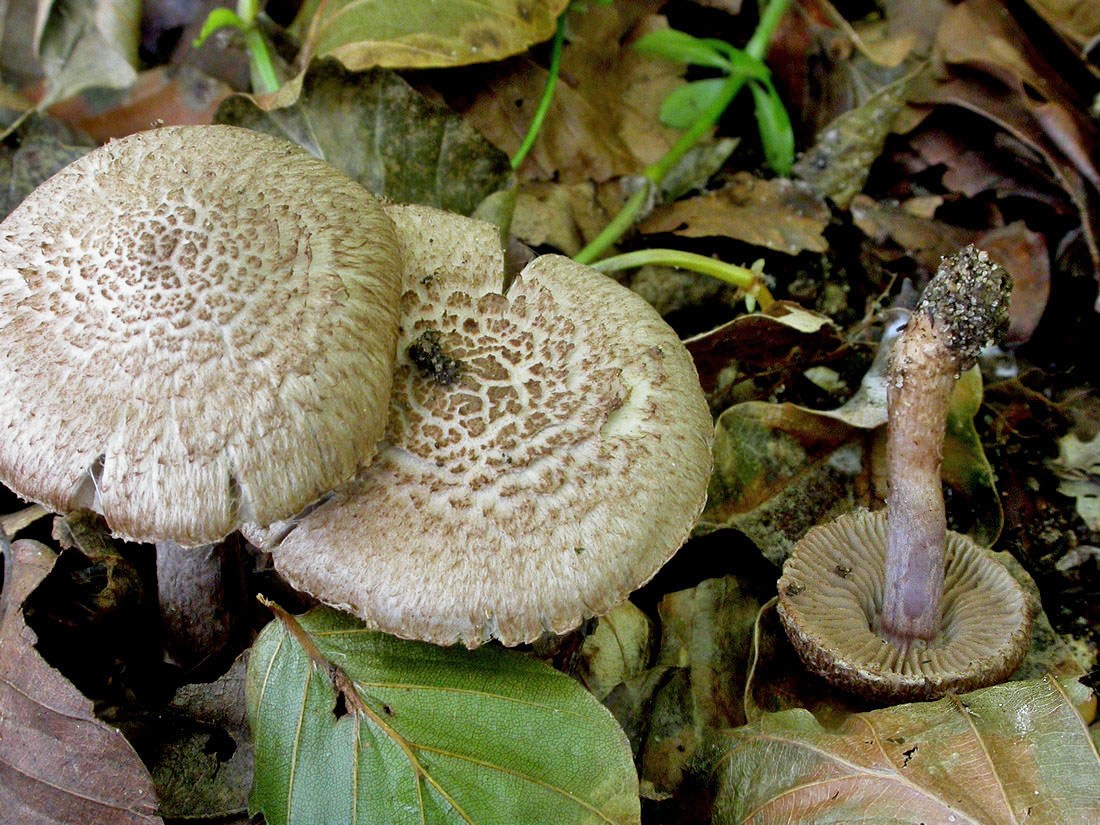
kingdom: Fungi
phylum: Basidiomycota
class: Agaricomycetes
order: Agaricales
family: Inocybaceae
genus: Inocybe
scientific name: Inocybe cincinnata
